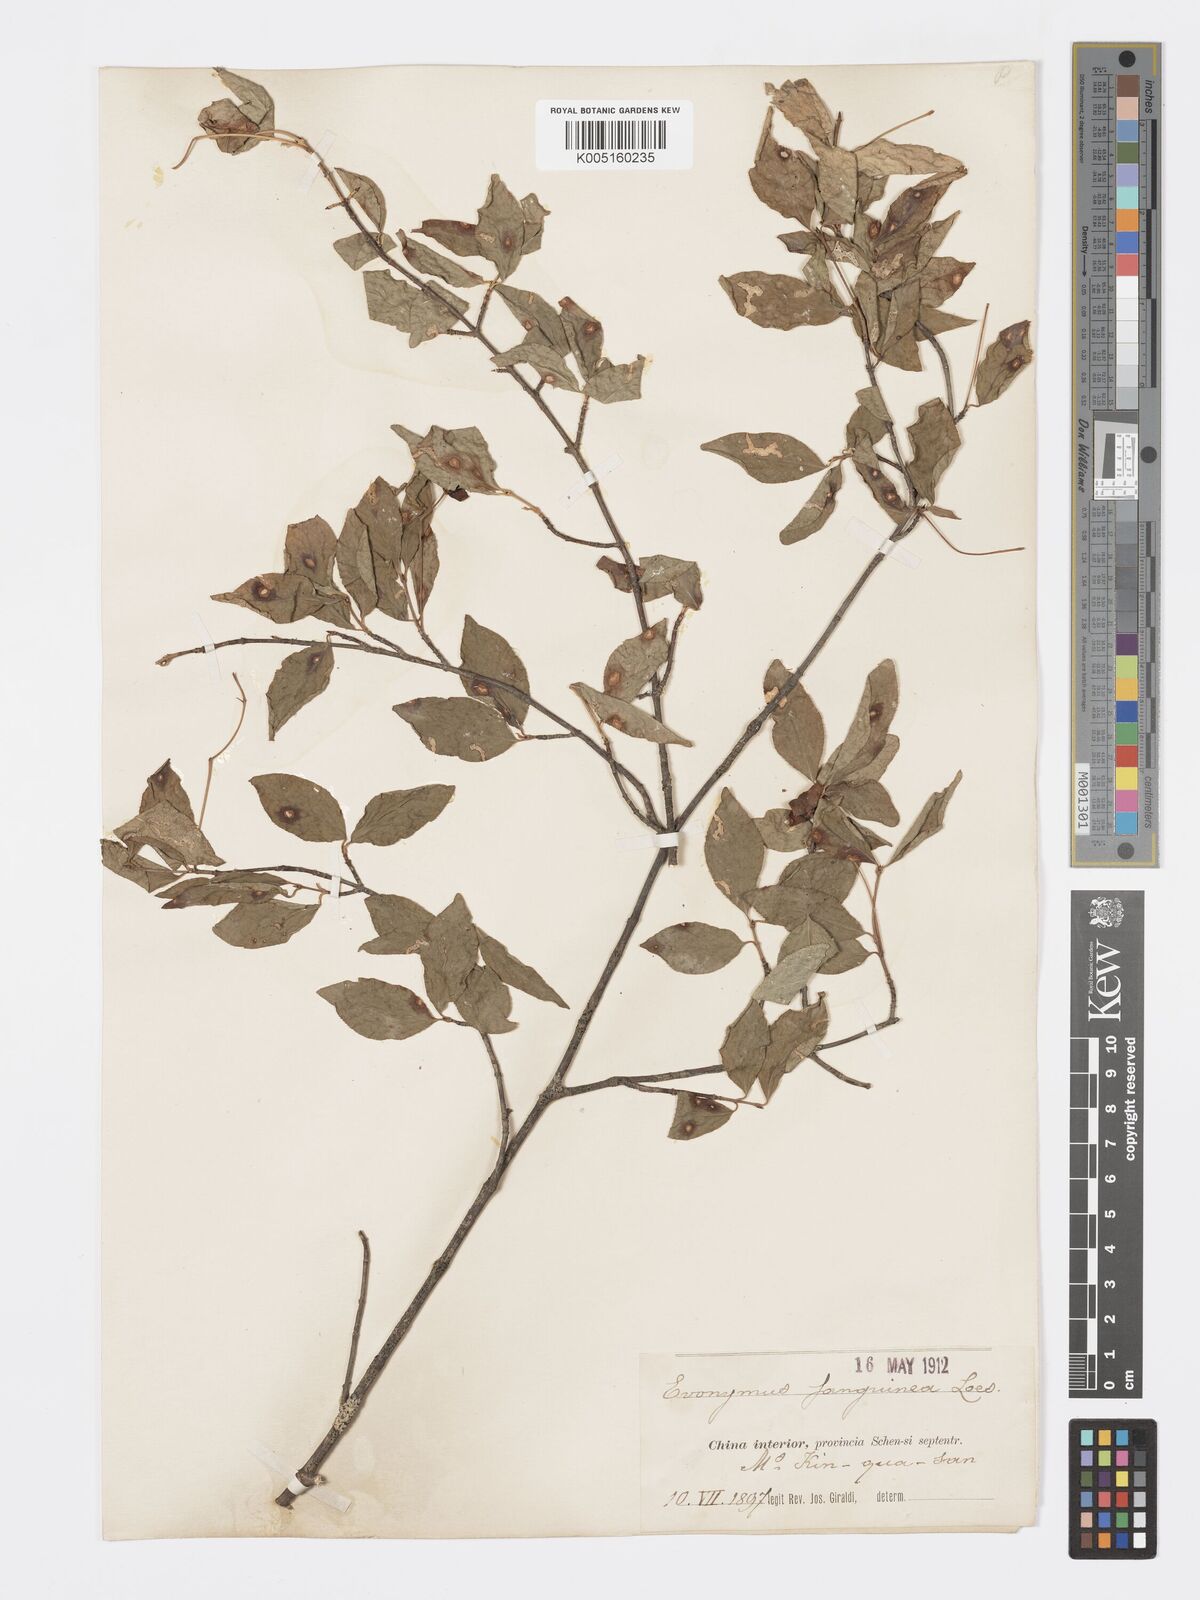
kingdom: Plantae
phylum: Tracheophyta
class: Magnoliopsida
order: Celastrales
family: Celastraceae
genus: Euonymus
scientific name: Euonymus giraldii
